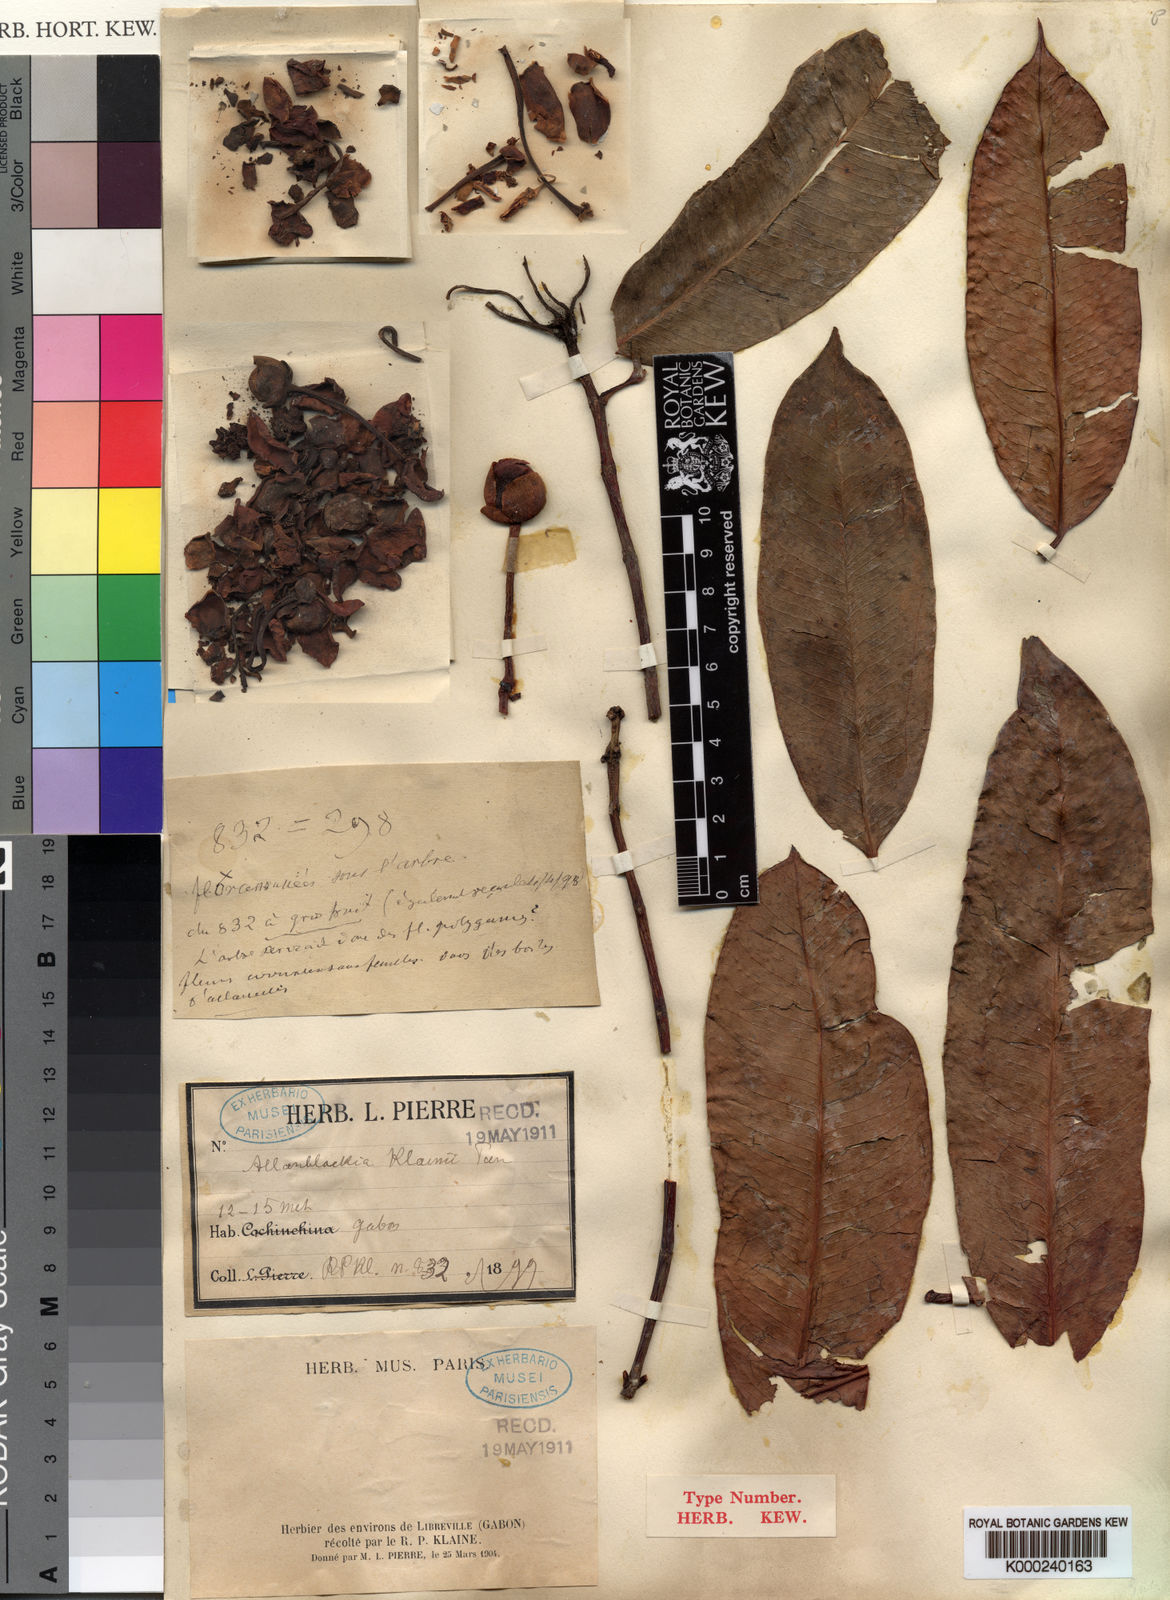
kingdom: Plantae
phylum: Tracheophyta
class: Magnoliopsida
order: Malpighiales
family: Clusiaceae
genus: Allanblackia
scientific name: Allanblackia floribunda
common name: Tallow tree
